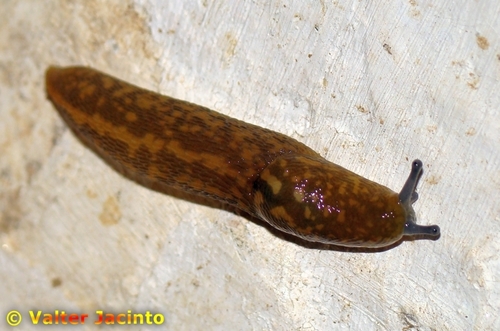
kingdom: Animalia
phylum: Mollusca
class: Gastropoda
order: Stylommatophora
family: Limacidae
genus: Limacus
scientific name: Limacus flavus
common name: Yellow gardenslug
